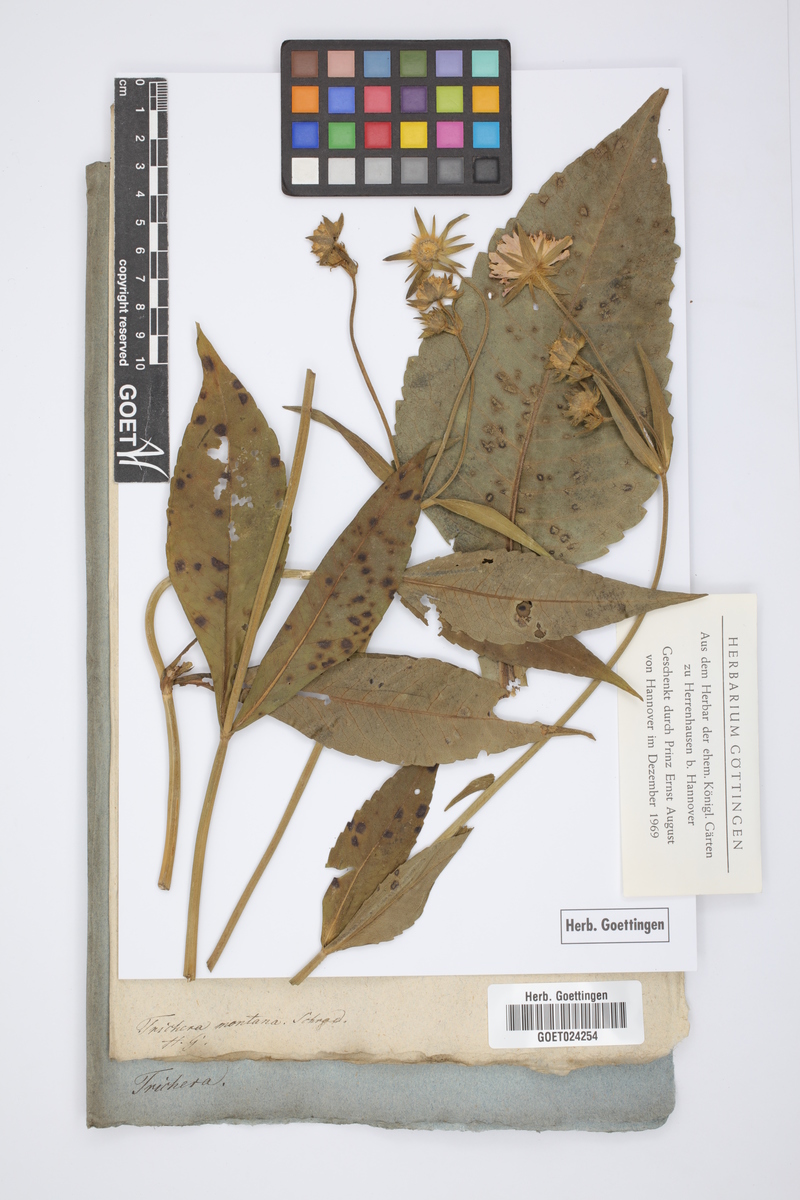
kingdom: Plantae
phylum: Tracheophyta
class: Magnoliopsida
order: Dipsacales
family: Caprifoliaceae
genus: Knautia
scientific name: Knautia tatarica
